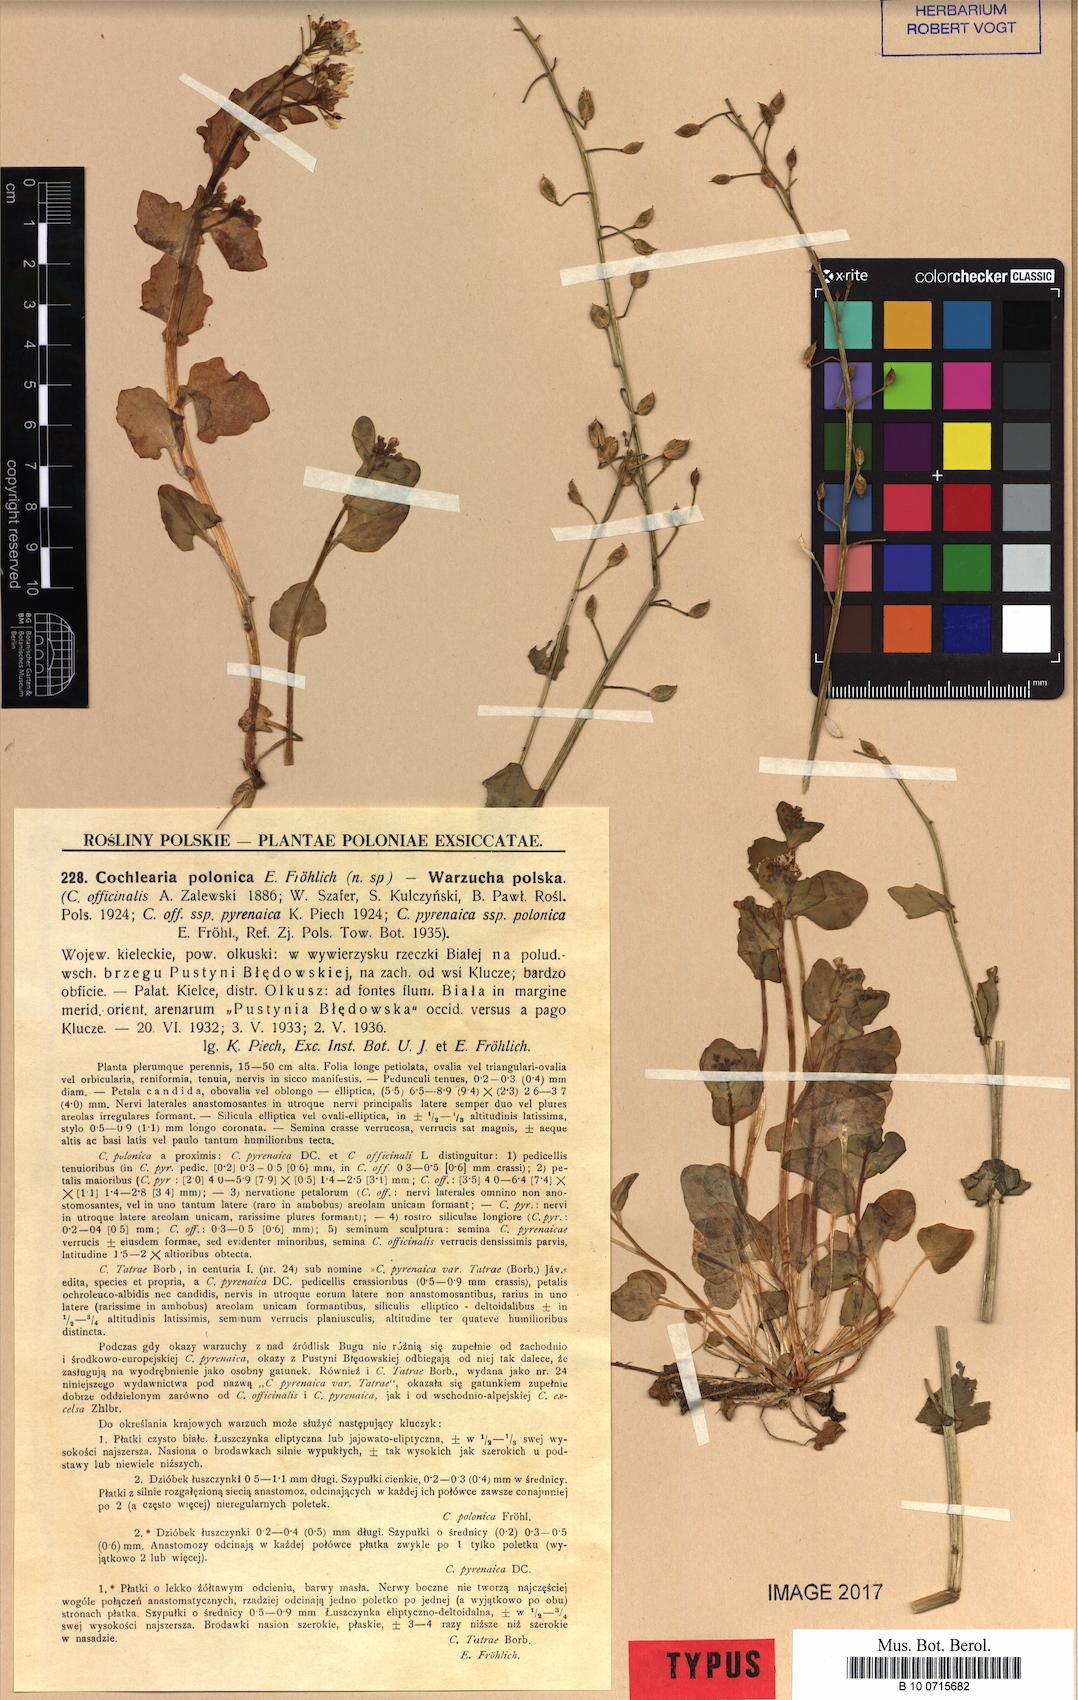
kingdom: Plantae
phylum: Tracheophyta
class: Magnoliopsida
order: Brassicales
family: Brassicaceae
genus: Cochlearia
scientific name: Cochlearia polonica
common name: Polish scurvy-grass
